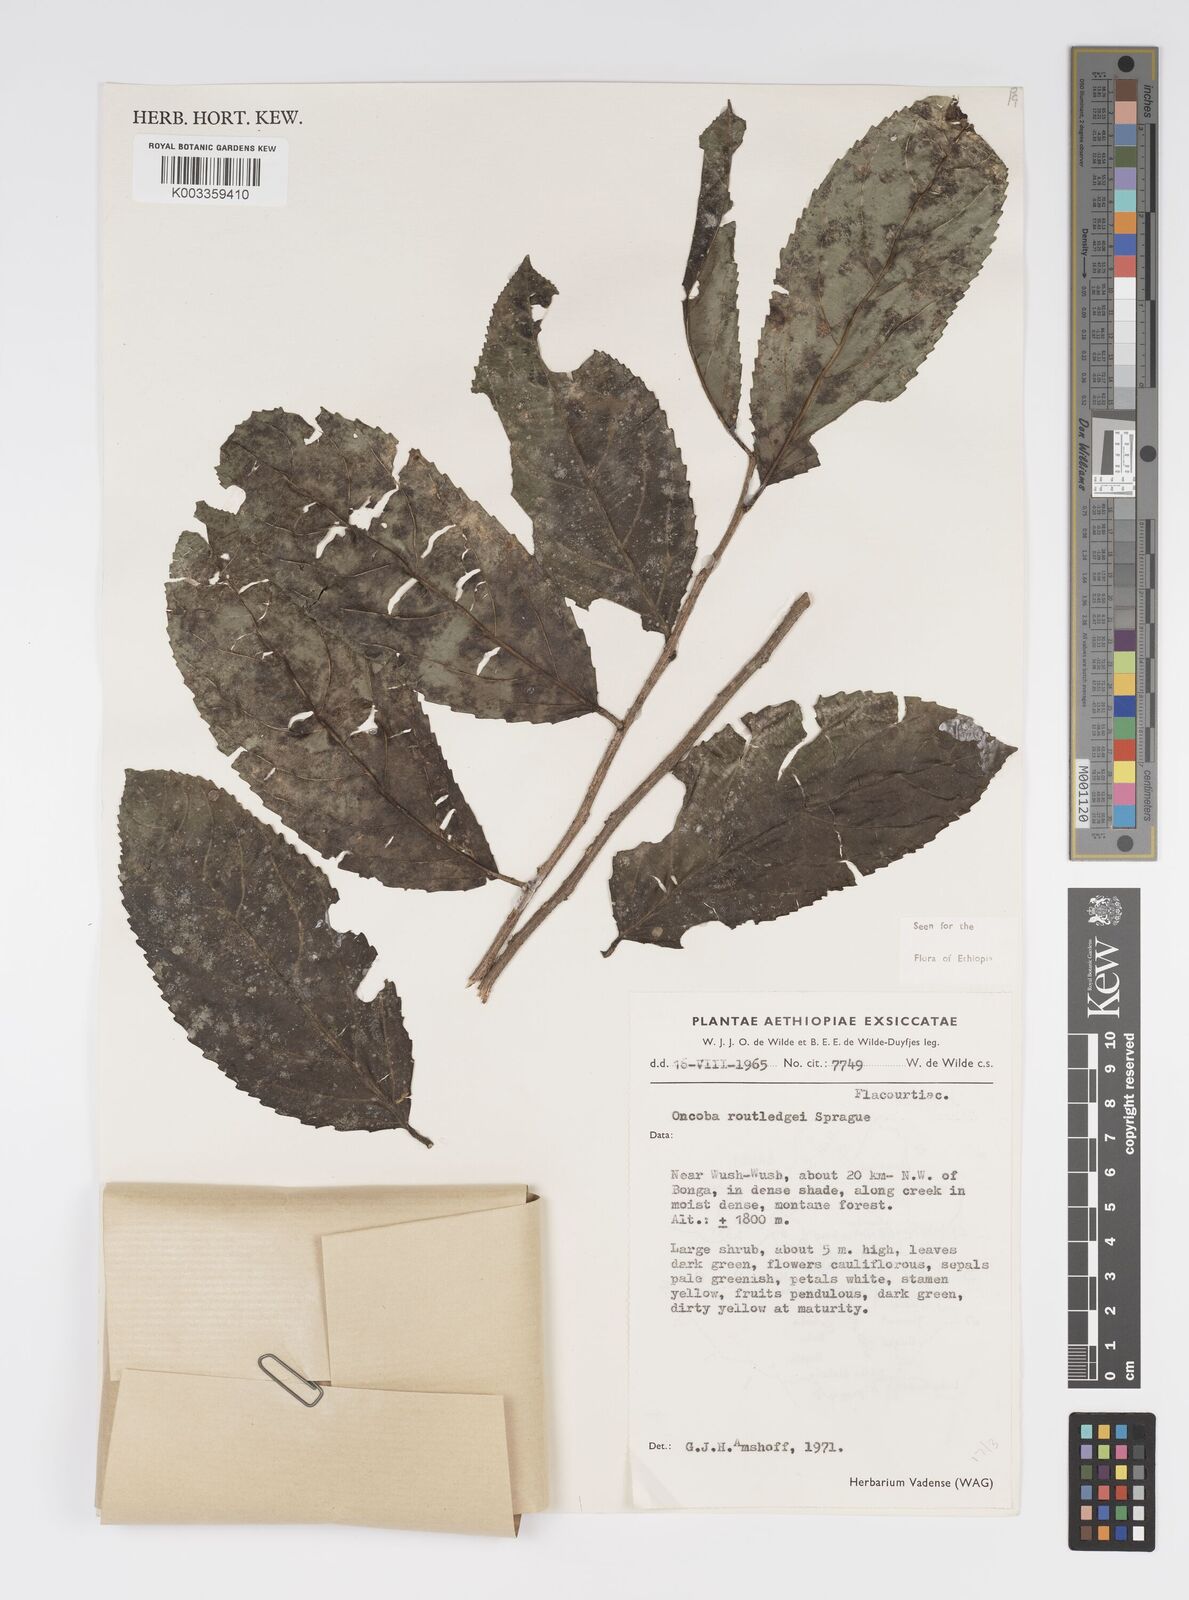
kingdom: Plantae
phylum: Tracheophyta
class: Magnoliopsida
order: Malpighiales
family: Salicaceae
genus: Oncoba
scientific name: Oncoba routledgei
